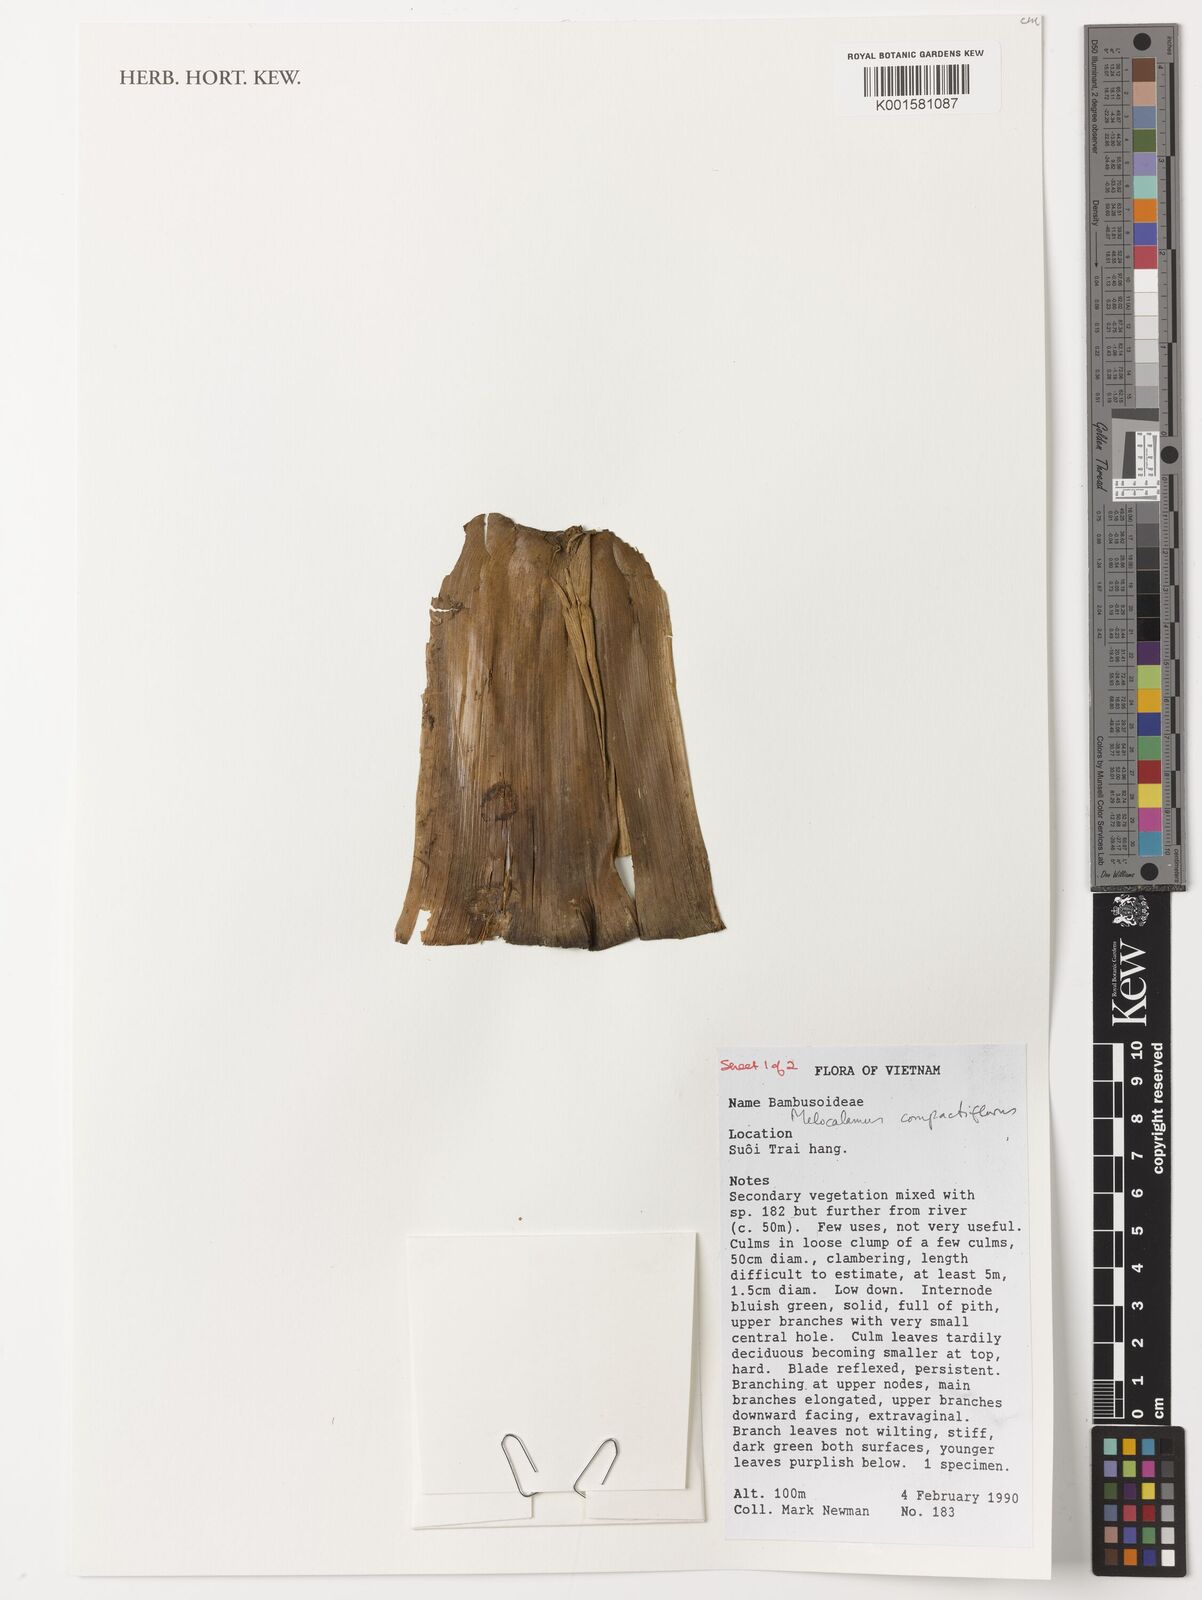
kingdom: Plantae
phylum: Tracheophyta
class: Liliopsida
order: Poales
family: Poaceae
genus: Melocalamus
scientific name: Melocalamus compactiflorus
